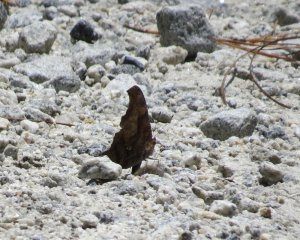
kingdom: Animalia
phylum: Arthropoda
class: Insecta
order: Lepidoptera
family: Nymphalidae
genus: Polygonia
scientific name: Polygonia interrogationis
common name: Question Mark
